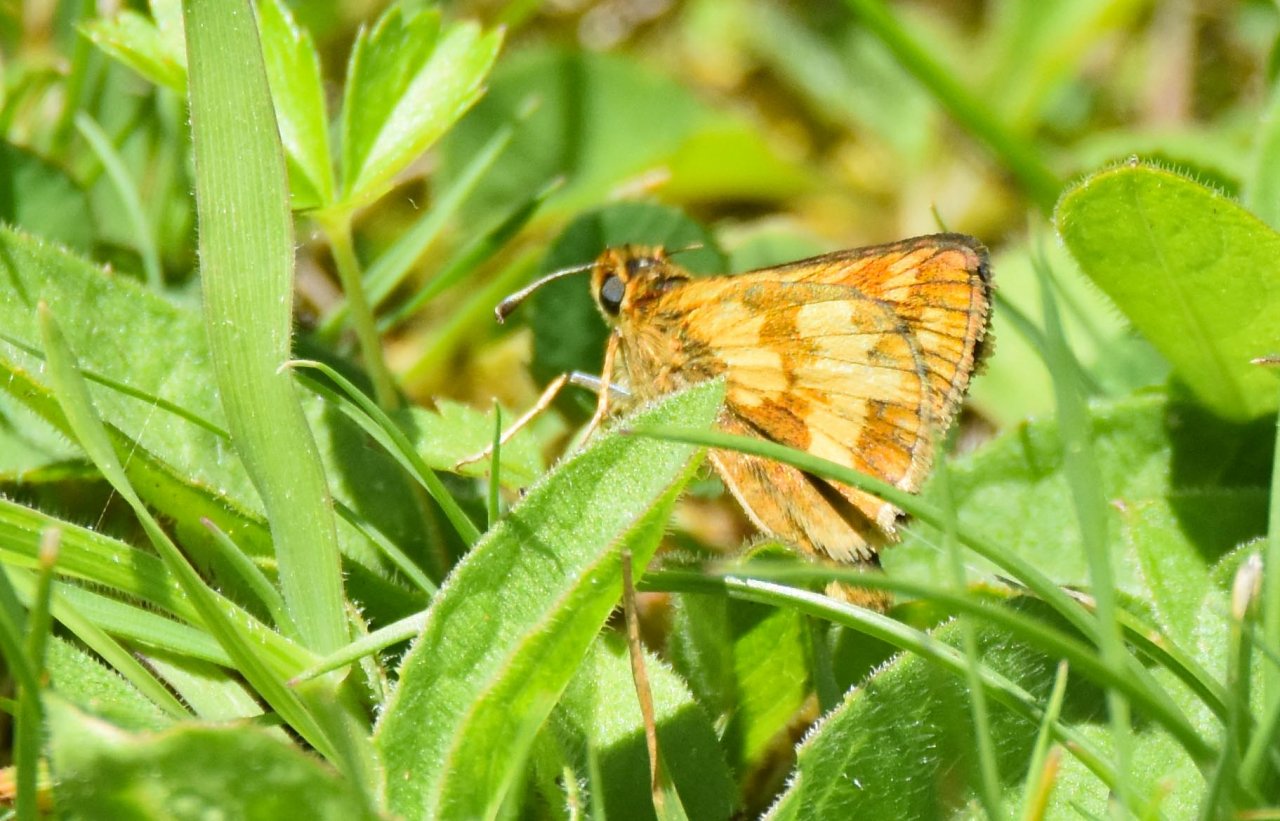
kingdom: Animalia
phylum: Arthropoda
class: Insecta
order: Lepidoptera
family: Hesperiidae
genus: Polites
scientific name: Polites coras
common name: Peck's Skipper
